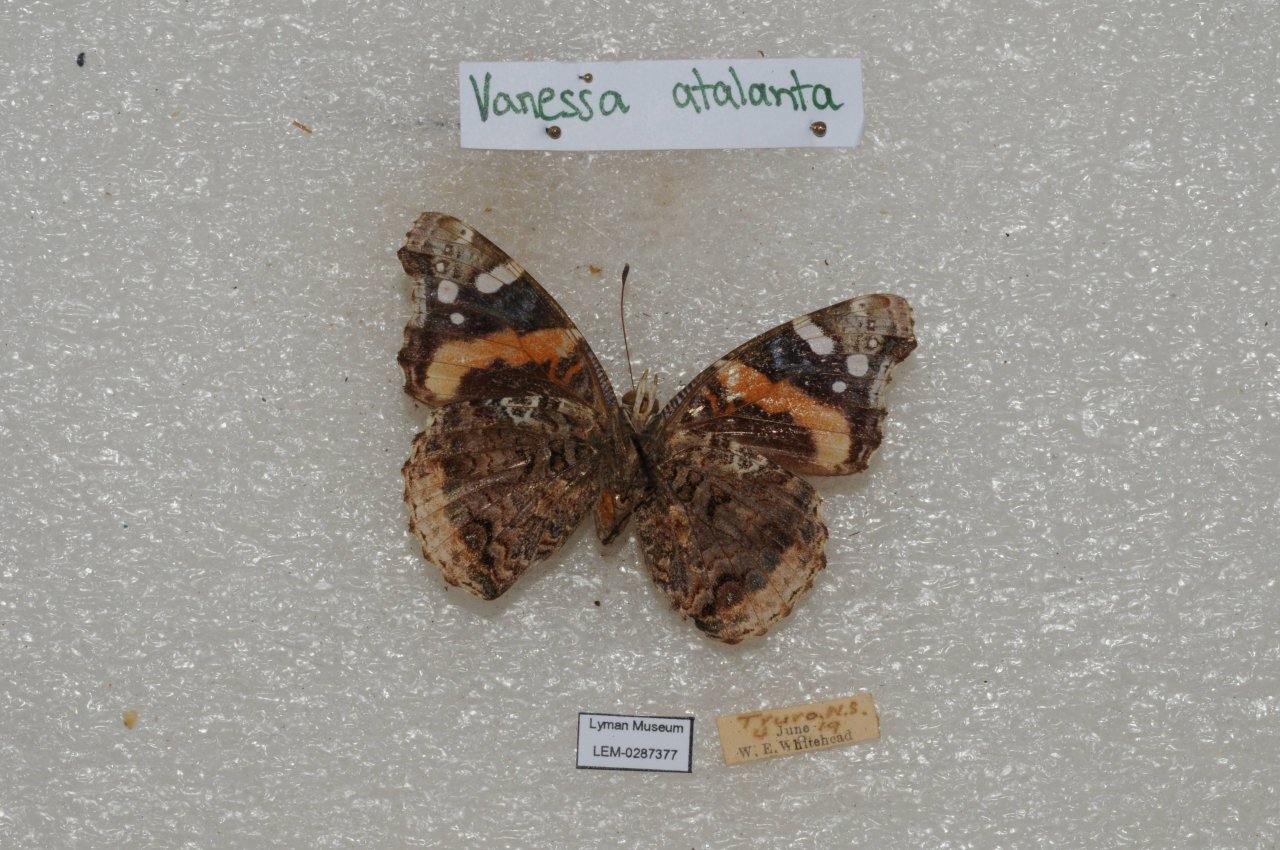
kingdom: Animalia
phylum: Arthropoda
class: Insecta
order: Lepidoptera
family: Nymphalidae
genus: Vanessa
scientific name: Vanessa atalanta
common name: Red Admiral
